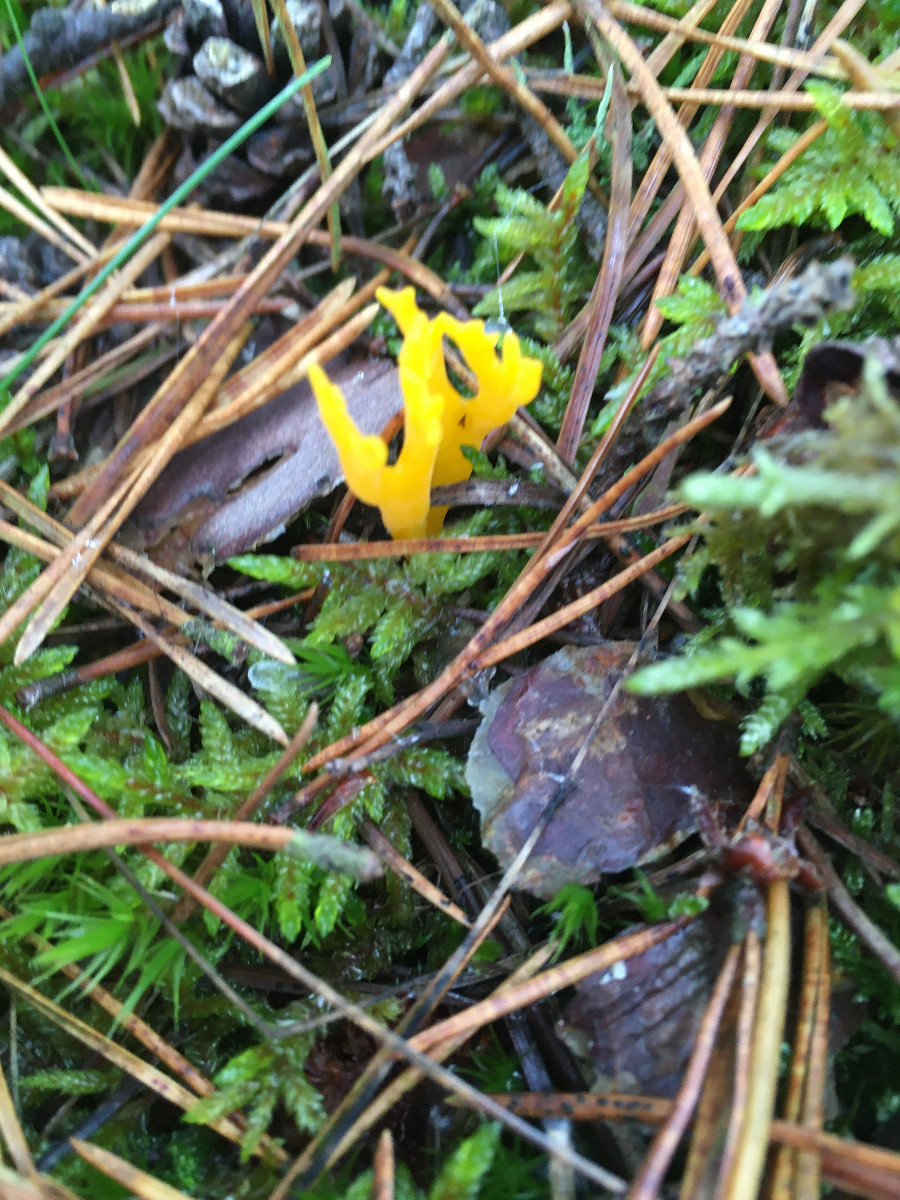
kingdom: Fungi
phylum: Basidiomycota
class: Dacrymycetes
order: Dacrymycetales
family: Dacrymycetaceae
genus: Calocera
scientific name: Calocera viscosa
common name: almindelig guldgaffel
